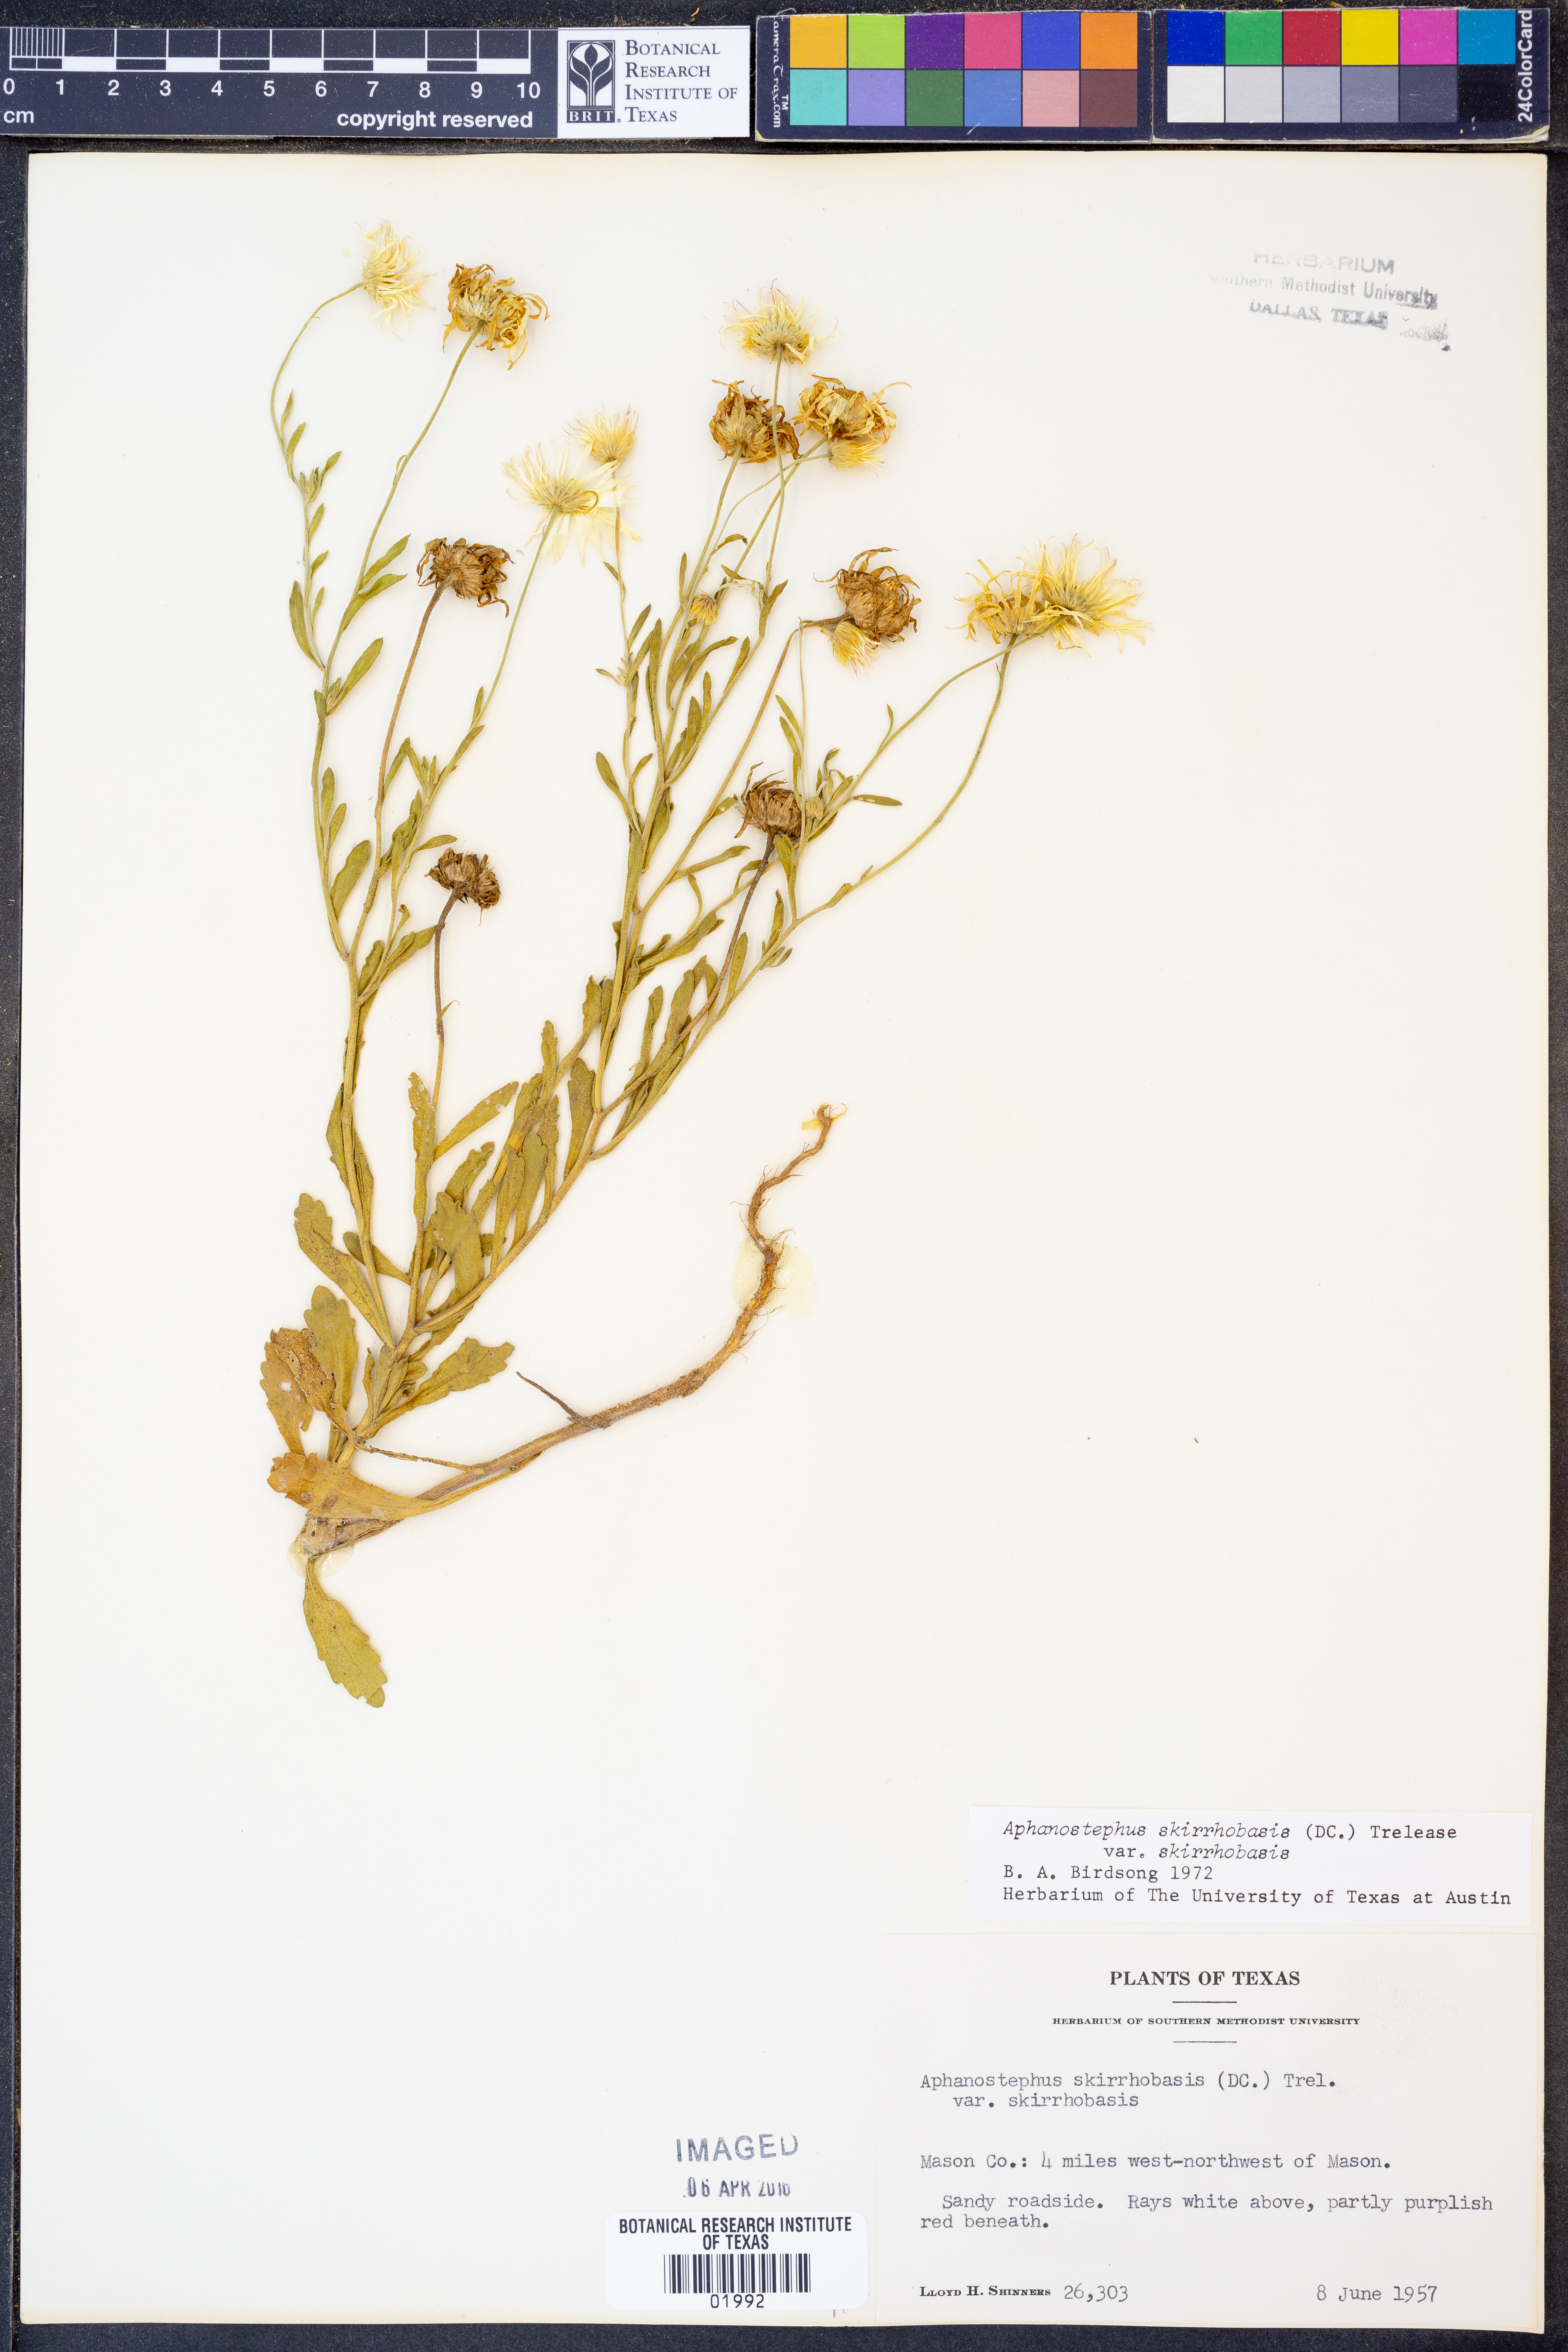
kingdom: Plantae
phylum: Tracheophyta
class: Magnoliopsida
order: Asterales
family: Asteraceae
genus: Aphanostephus
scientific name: Aphanostephus skirrhobasis
